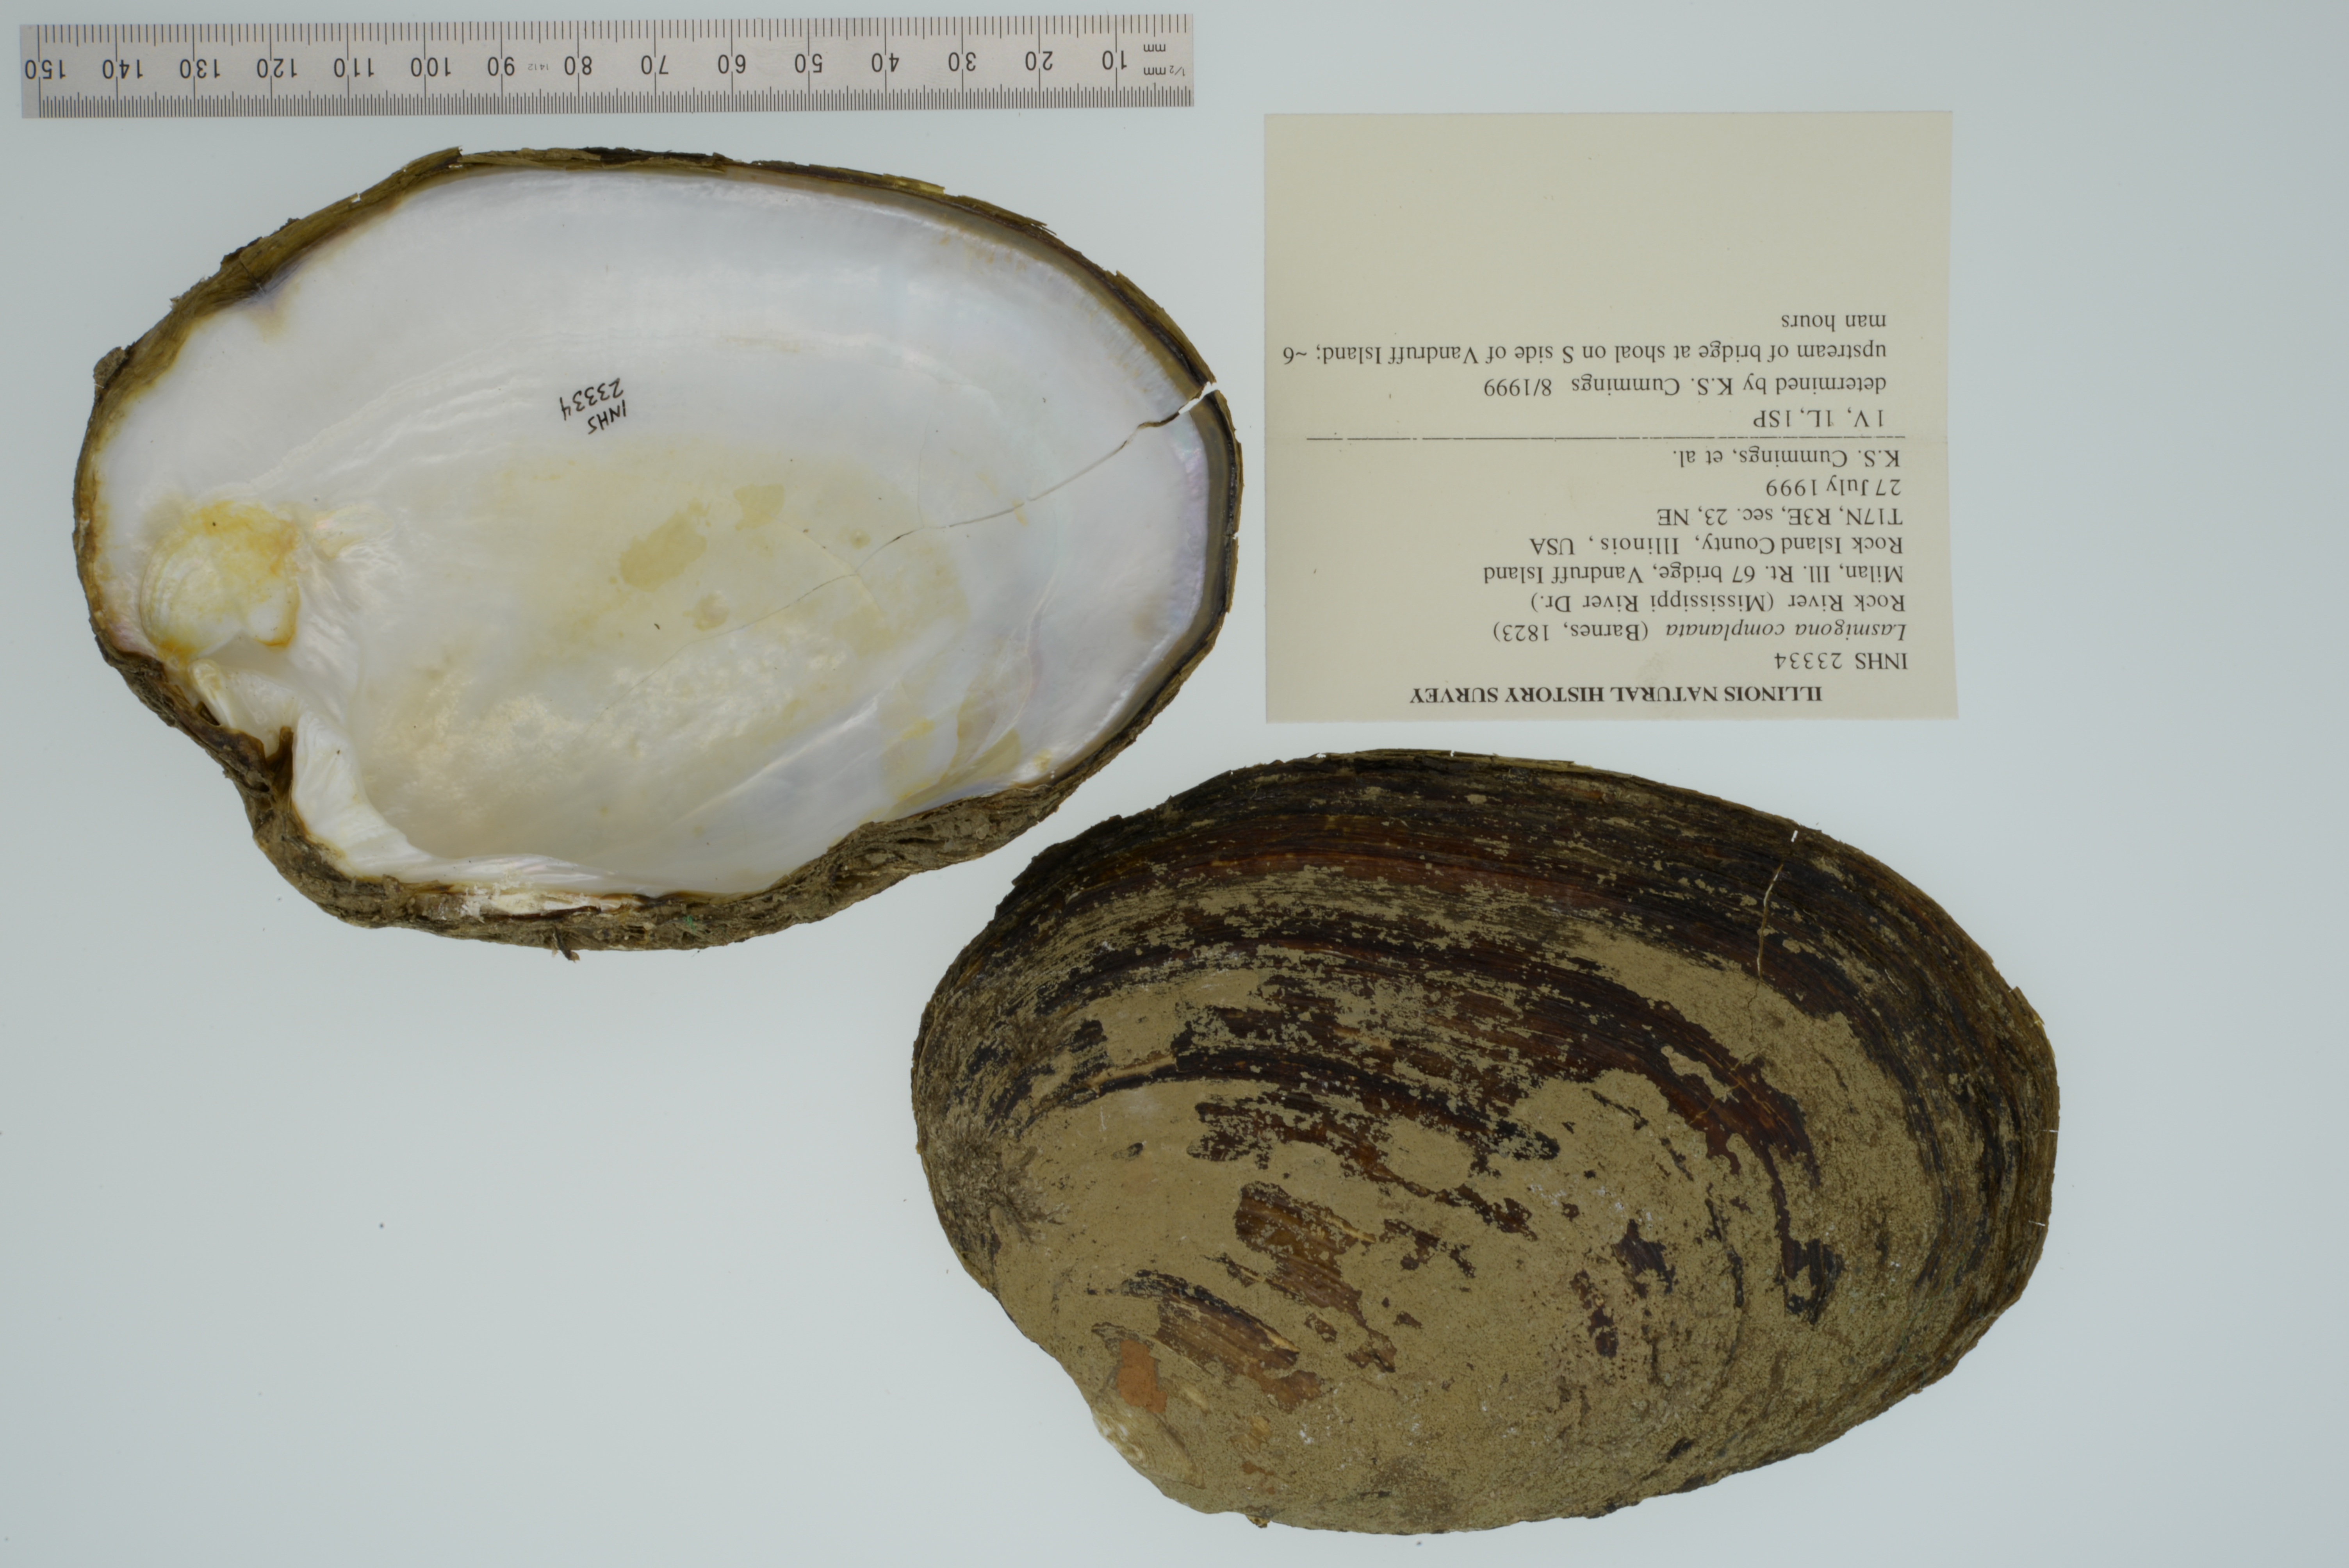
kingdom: Animalia
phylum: Mollusca
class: Bivalvia
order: Unionida
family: Unionidae
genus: Lasmigona
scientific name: Lasmigona complanata
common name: White heelsplitter
